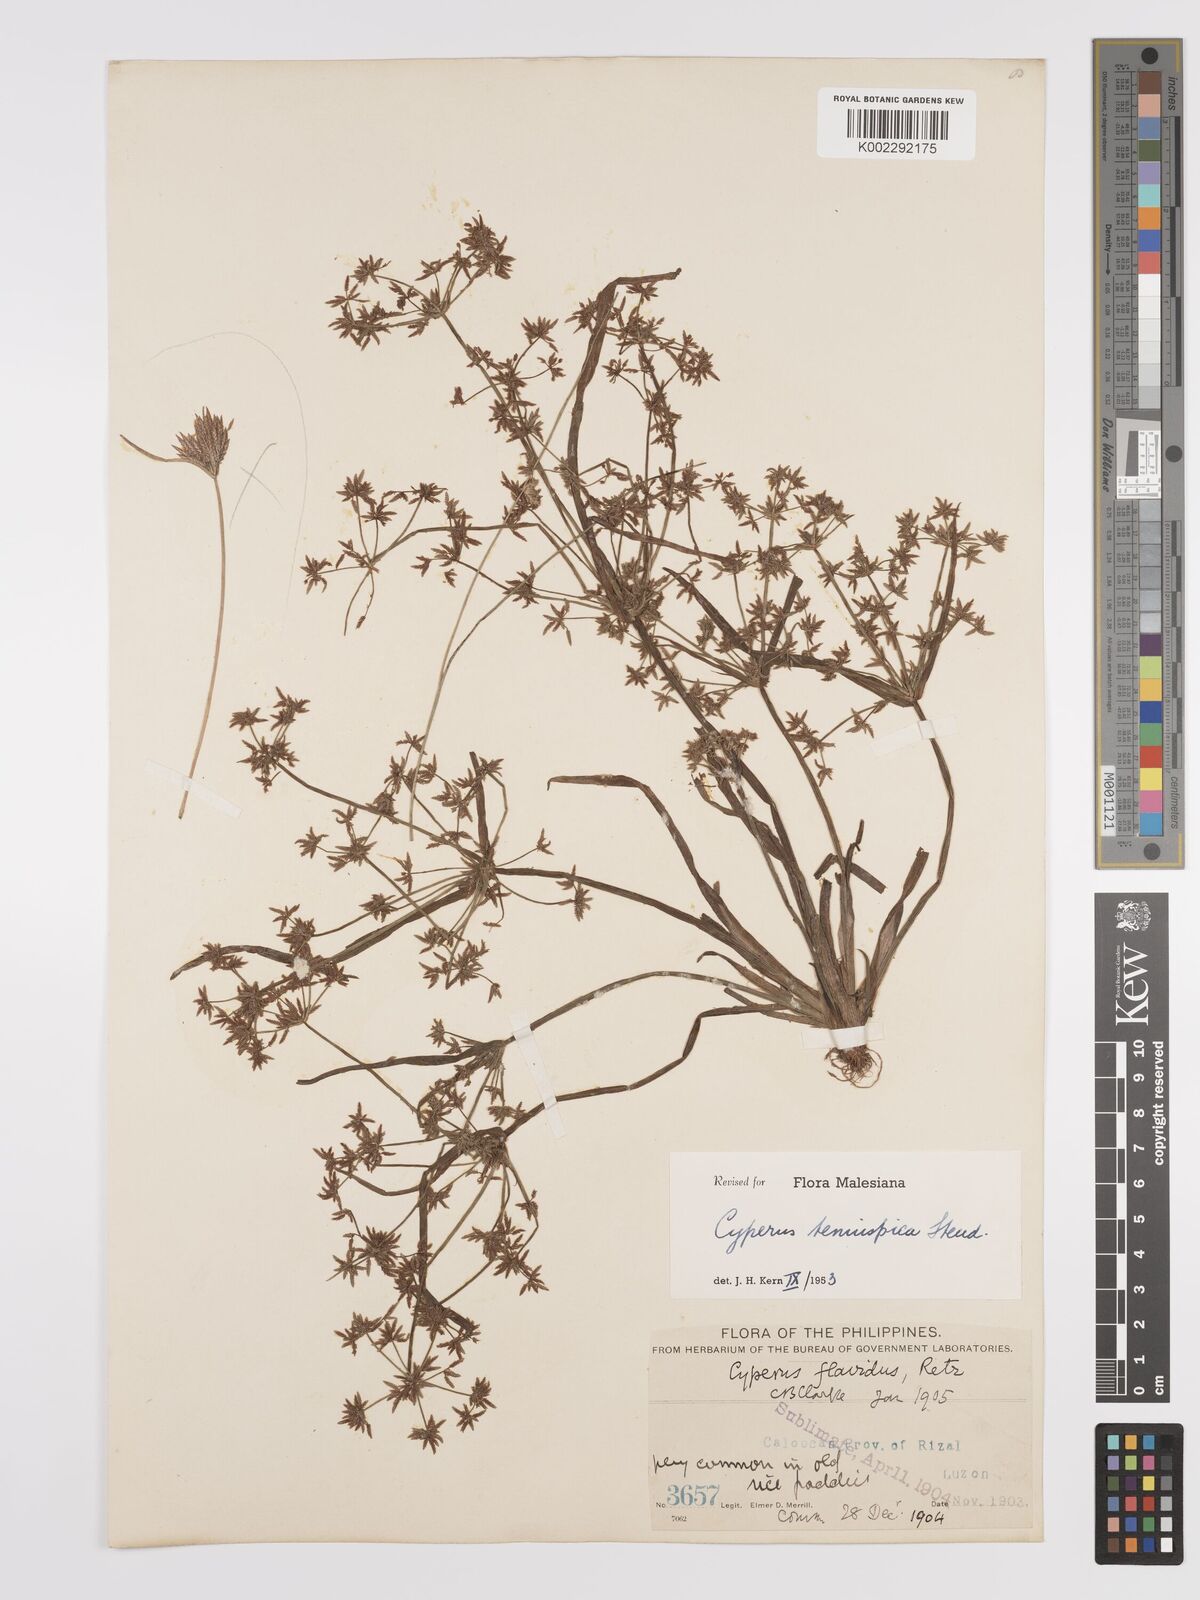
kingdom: Plantae
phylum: Tracheophyta
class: Liliopsida
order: Poales
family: Cyperaceae
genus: Cyperus
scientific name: Cyperus tenuispica
